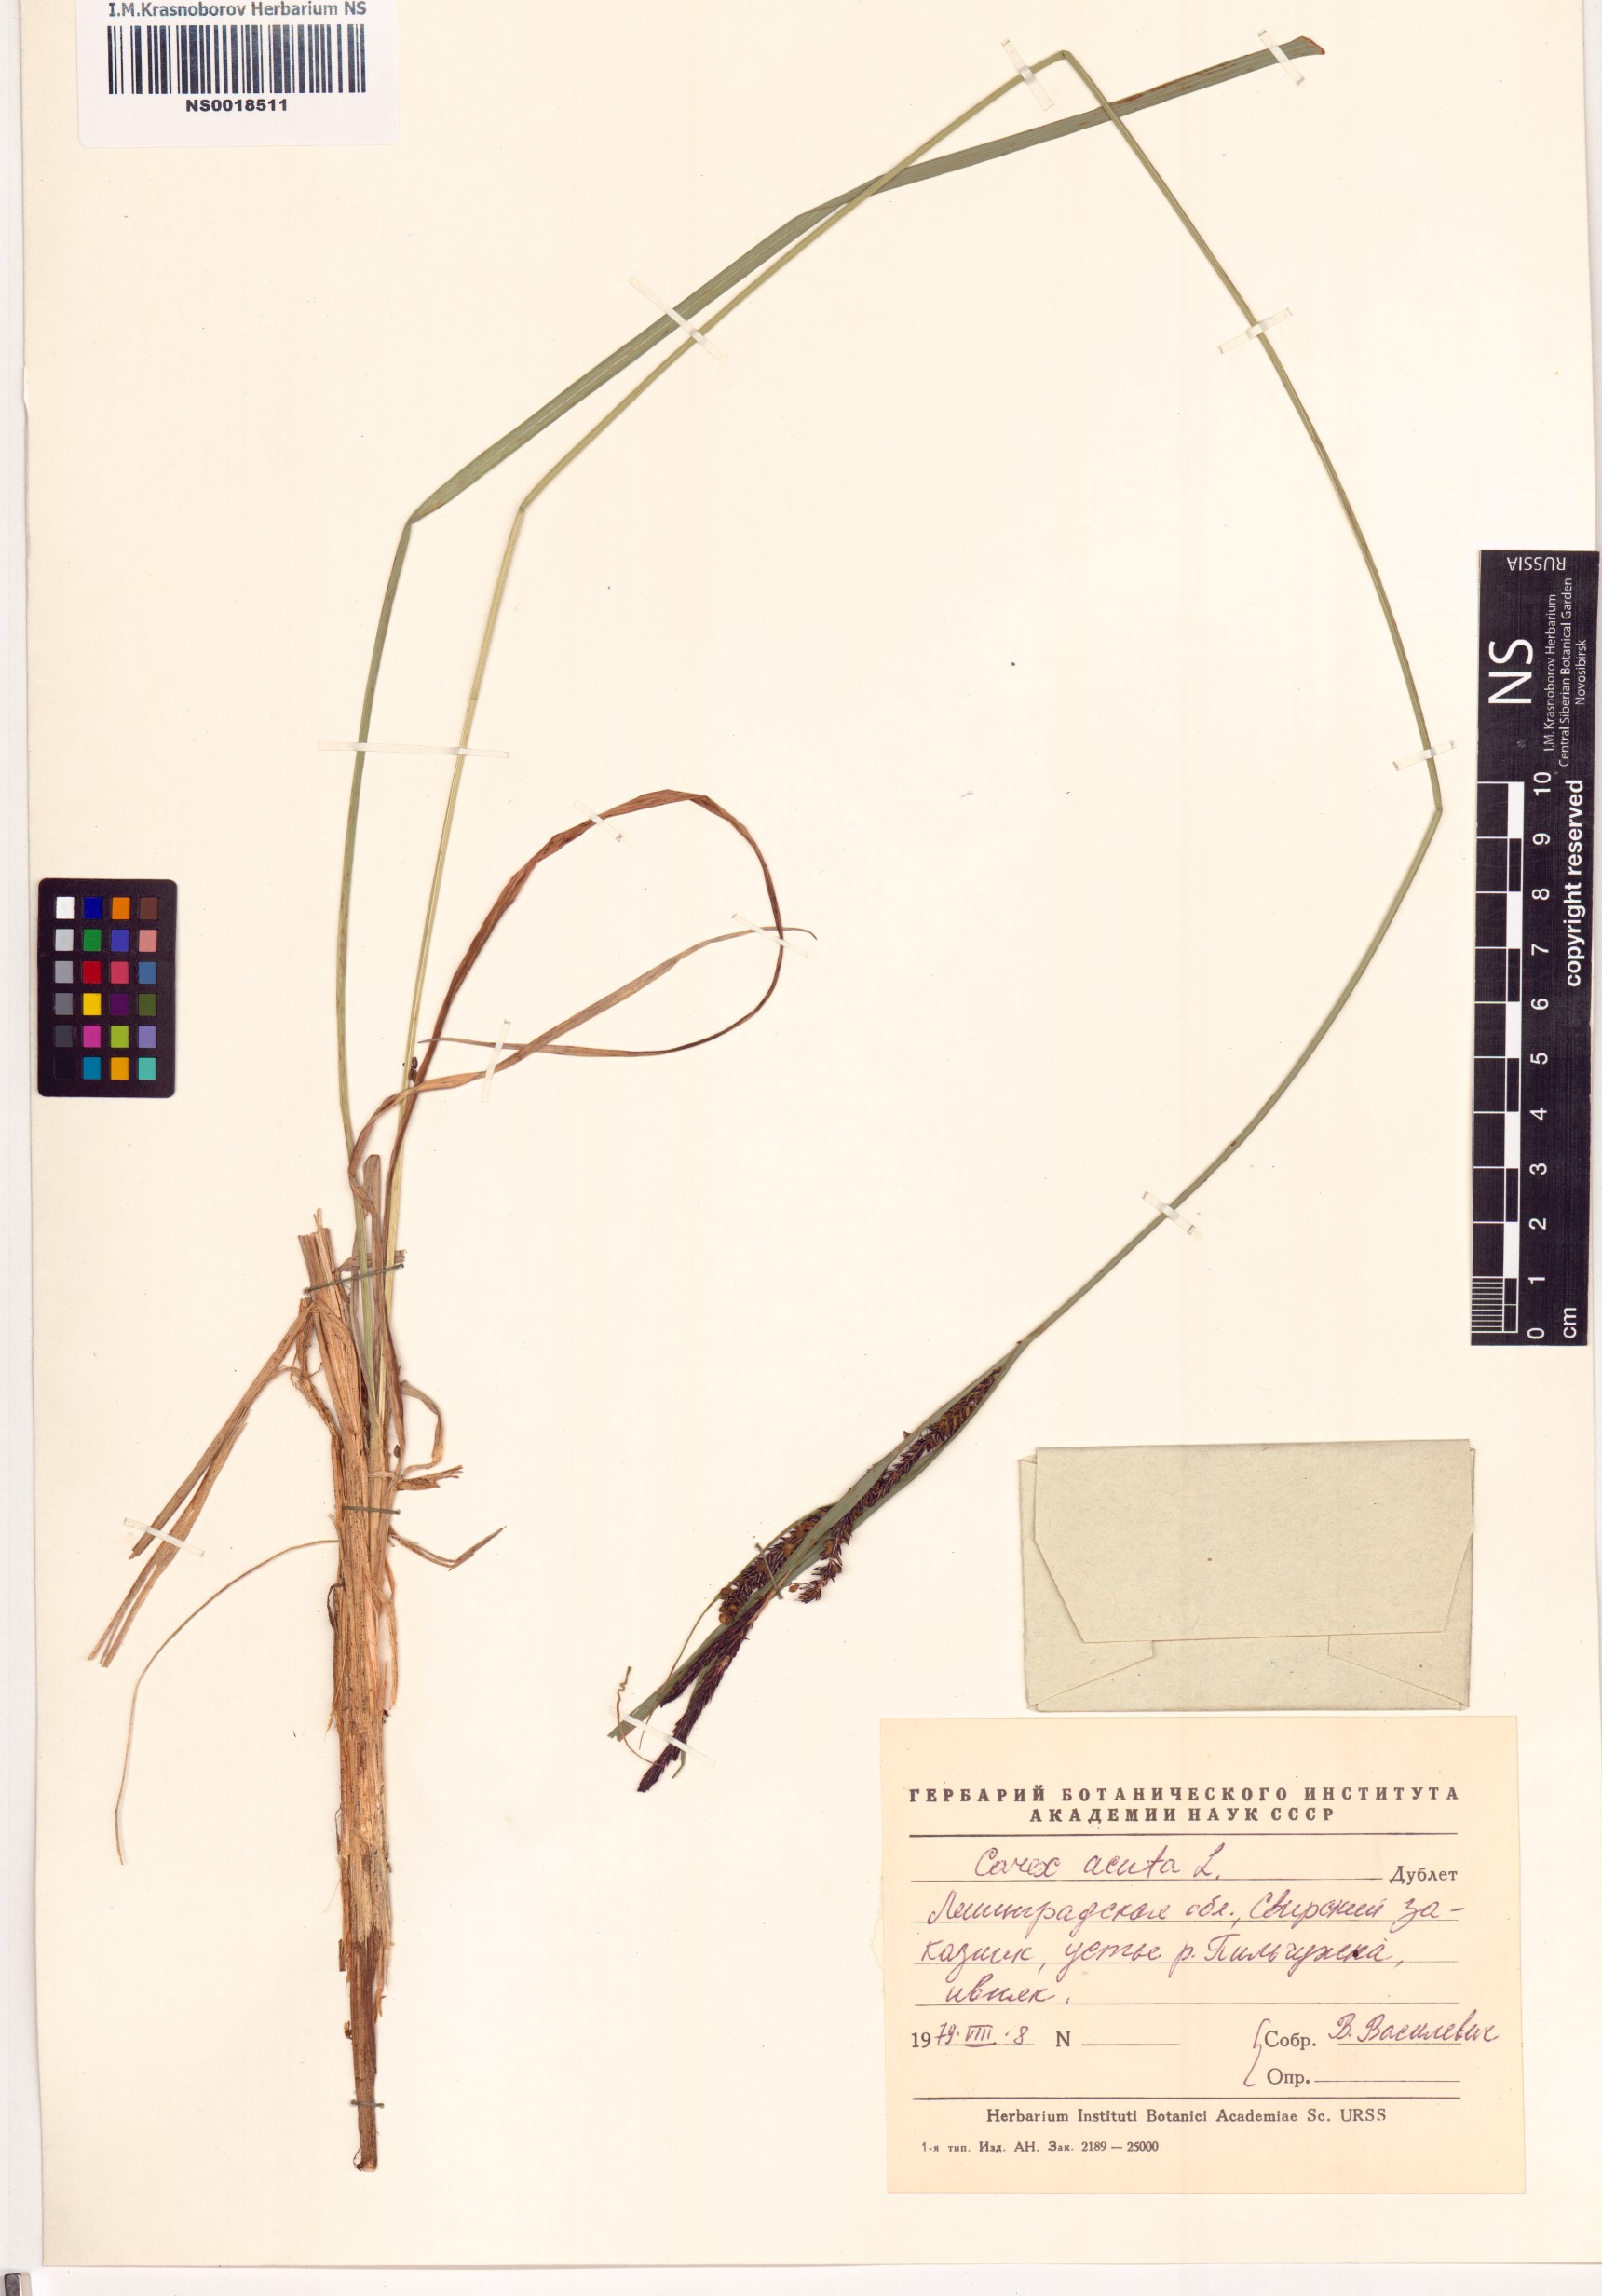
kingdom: Plantae
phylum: Tracheophyta
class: Liliopsida
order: Poales
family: Cyperaceae
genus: Carex
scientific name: Carex acuta
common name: Slender tufted-sedge
